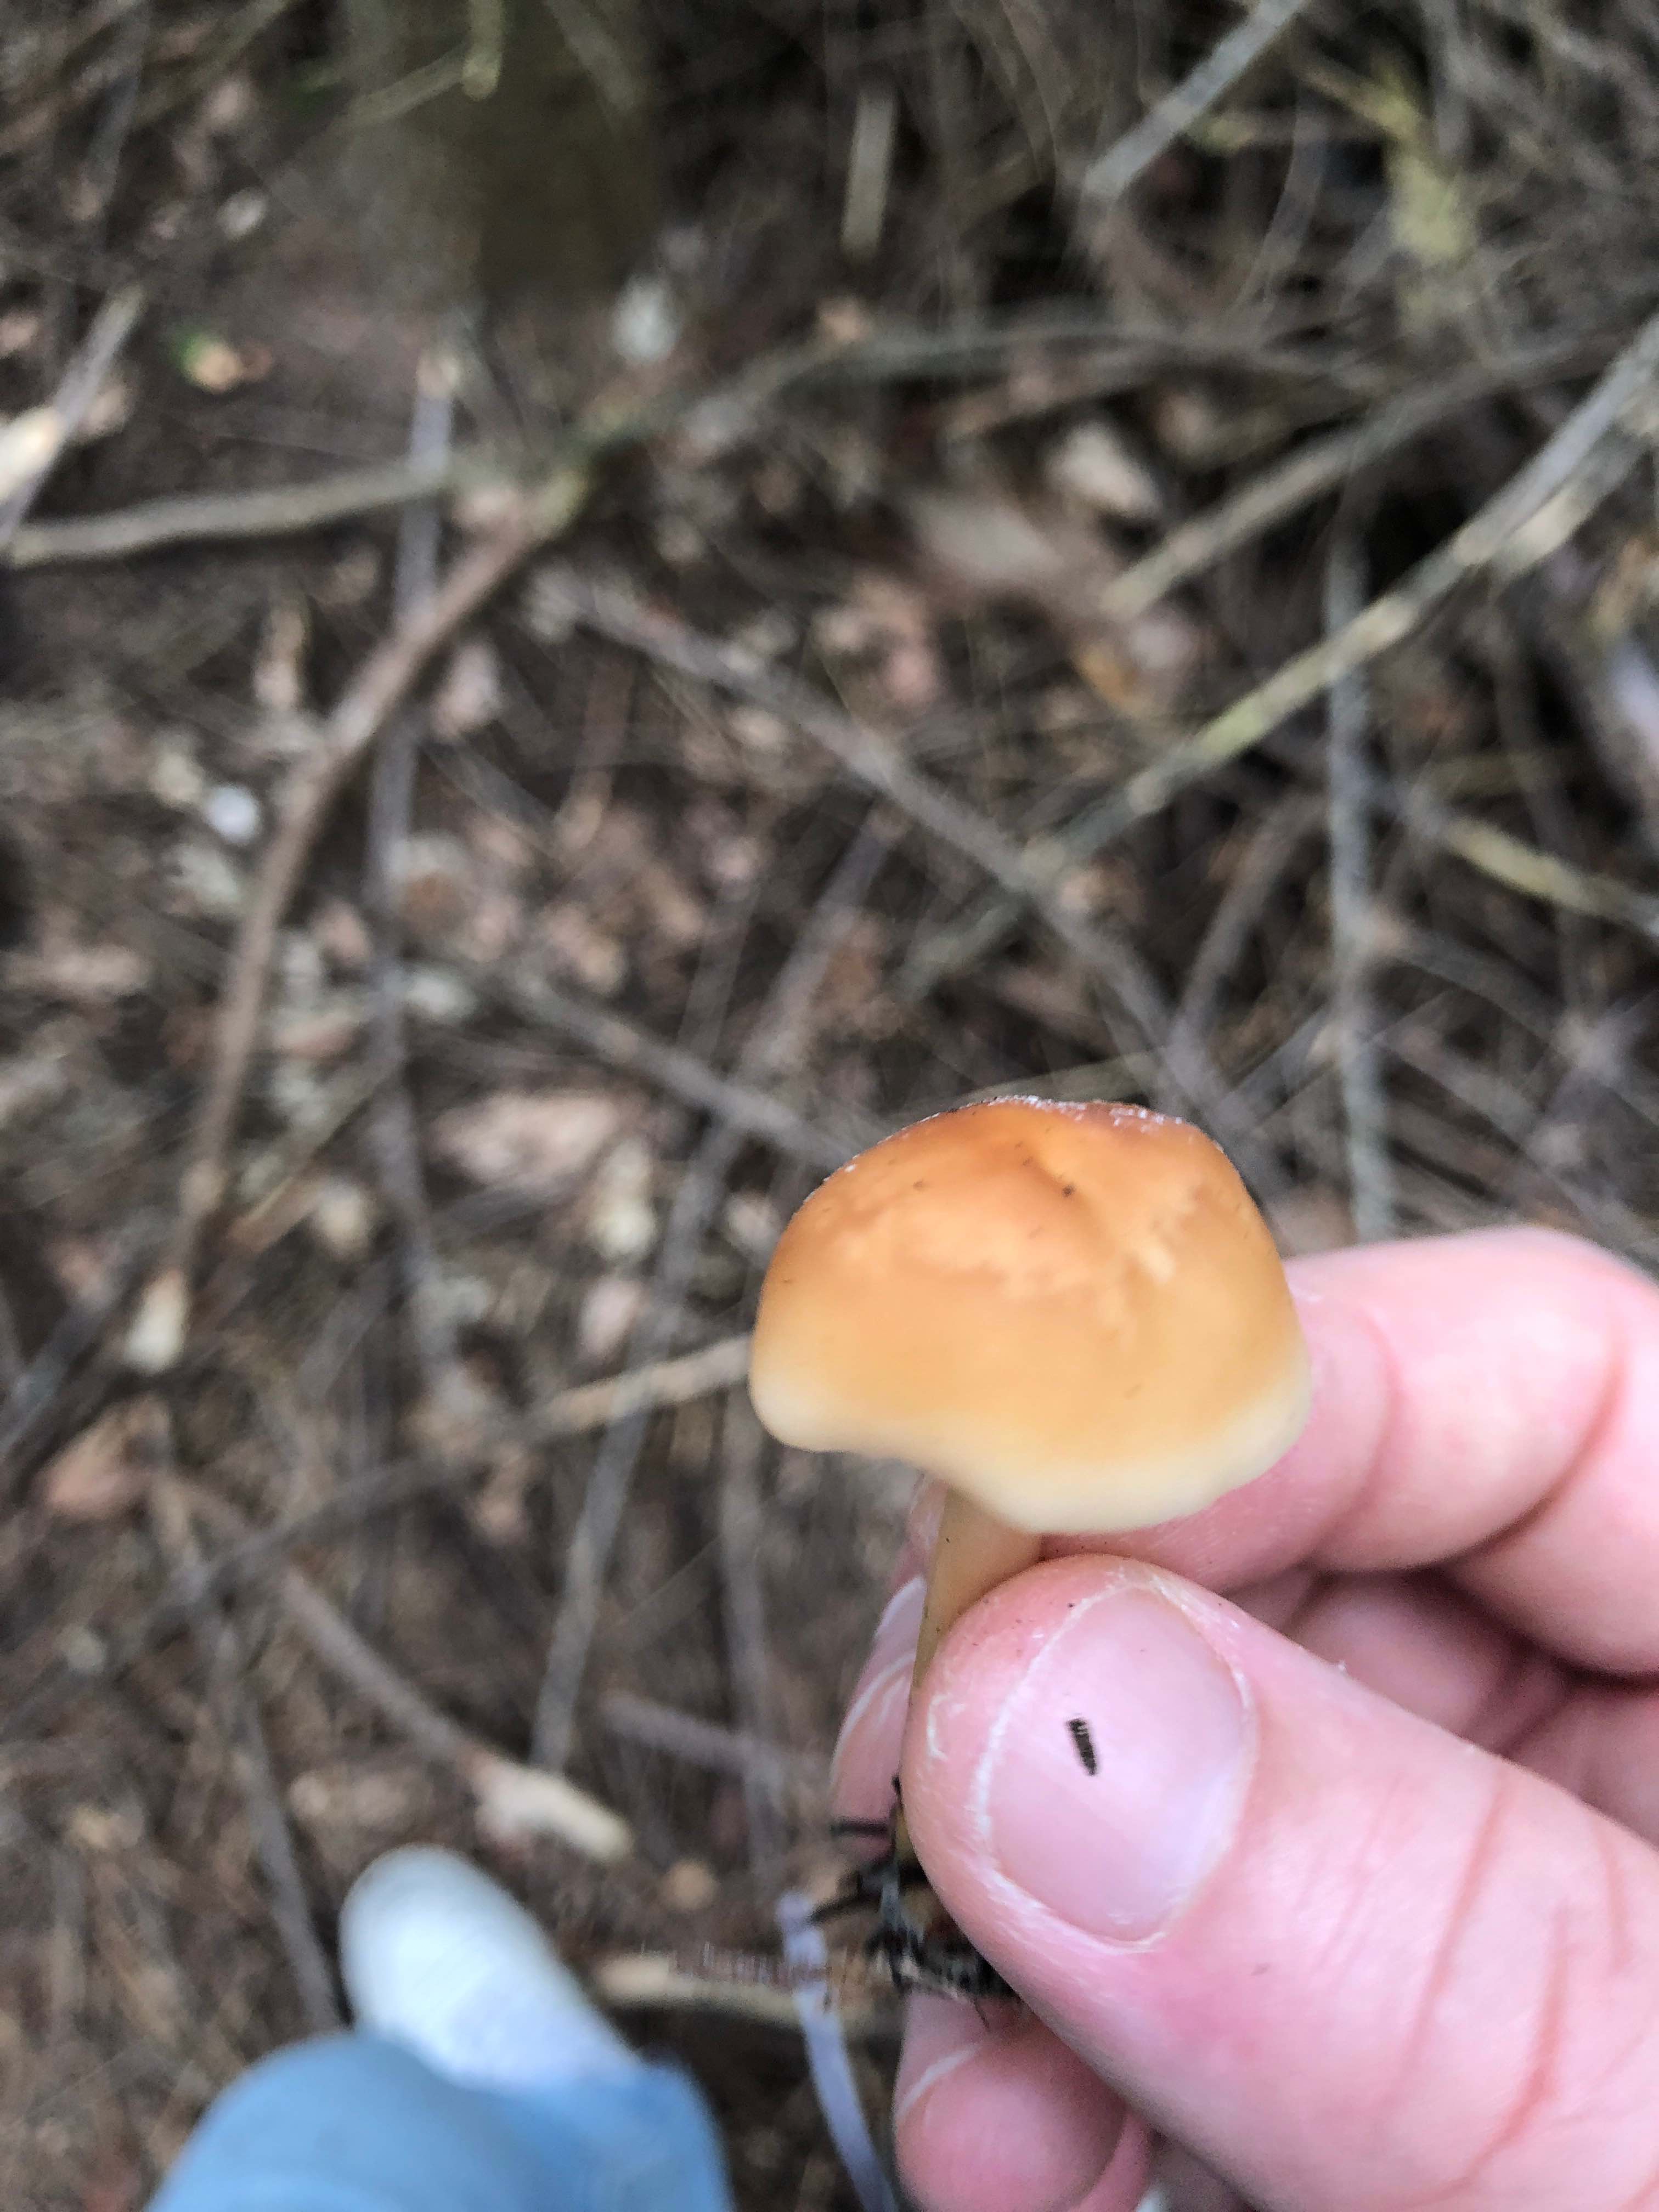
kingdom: Fungi
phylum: Basidiomycota
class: Agaricomycetes
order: Agaricales
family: Omphalotaceae
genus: Gymnopus
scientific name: Gymnopus dryophilus
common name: løv-fladhat
